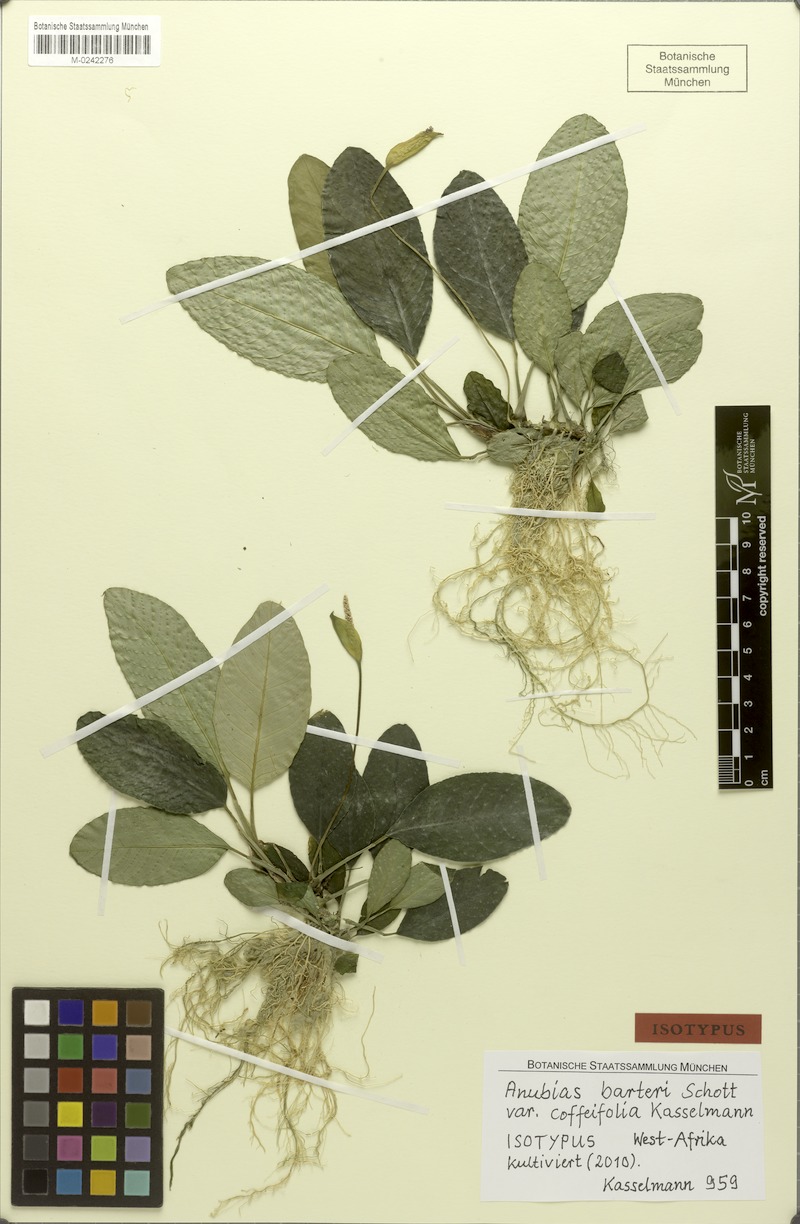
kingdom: Plantae
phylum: Tracheophyta
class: Liliopsida
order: Alismatales
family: Araceae
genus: Anubias
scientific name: Anubias barteri
